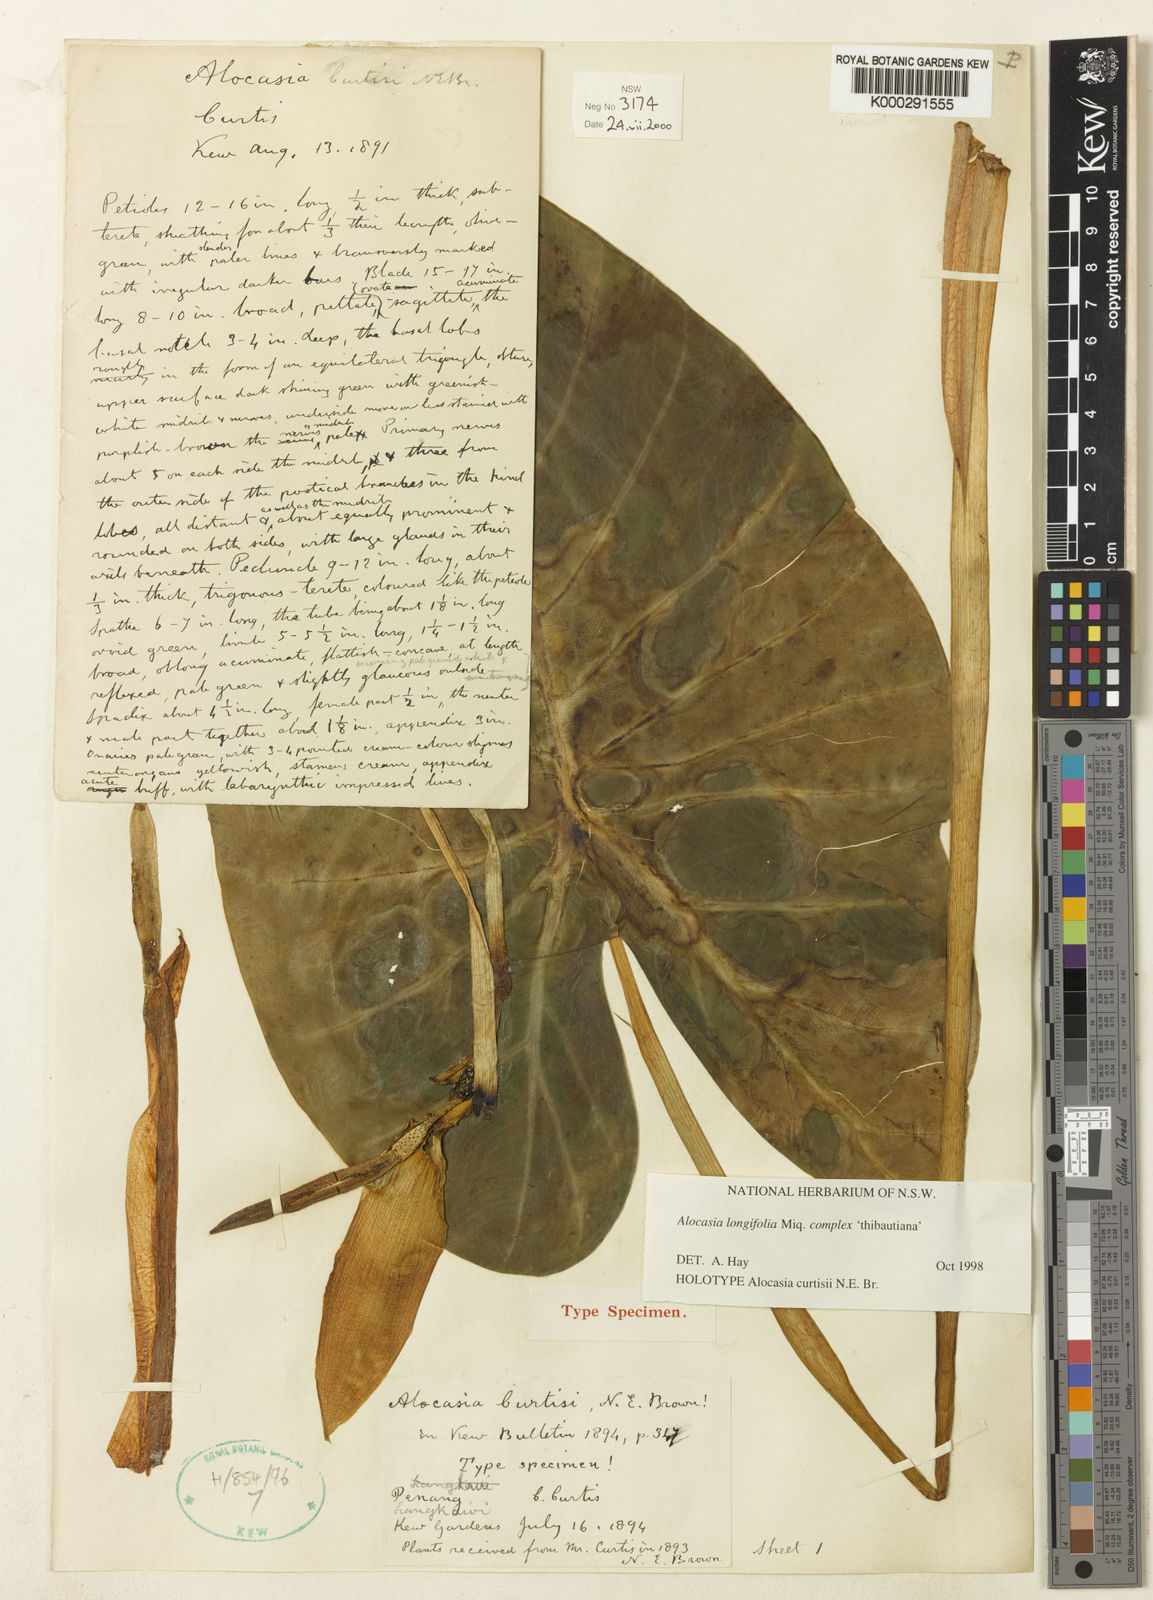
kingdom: Plantae
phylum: Tracheophyta
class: Liliopsida
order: Alismatales
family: Araceae
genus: Alocasia
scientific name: Alocasia longiloba
